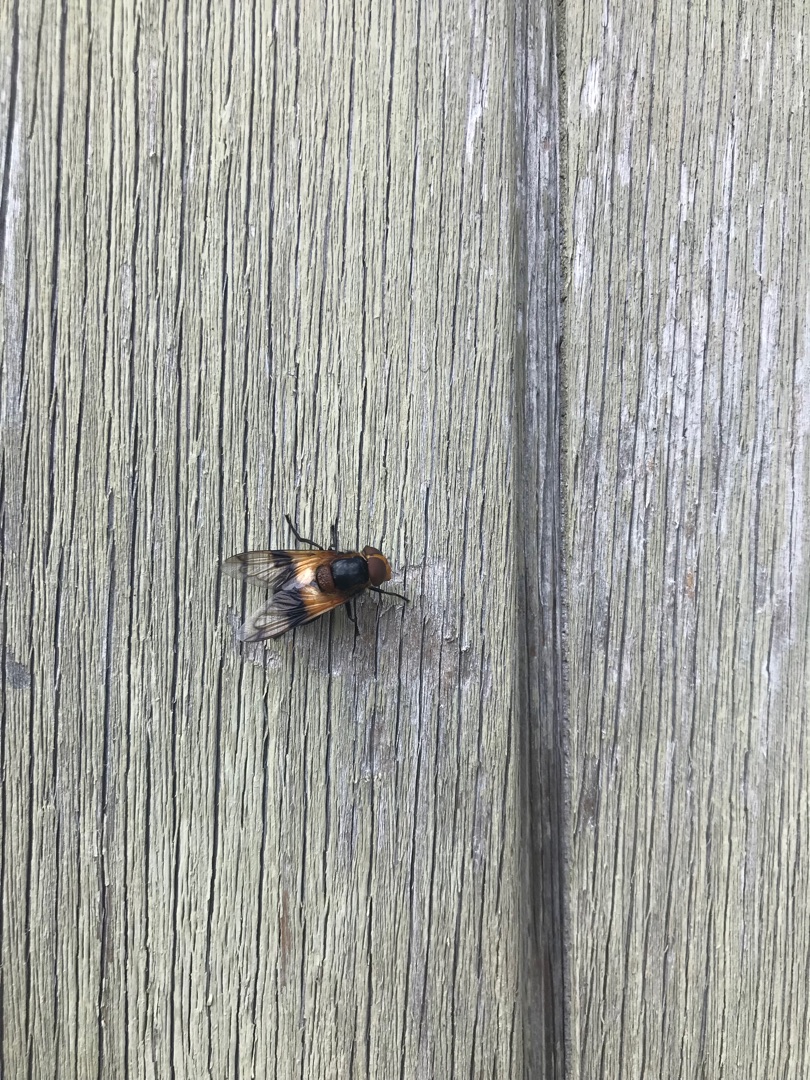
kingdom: Animalia
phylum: Arthropoda
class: Insecta
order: Diptera
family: Syrphidae
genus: Volucella
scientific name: Volucella pellucens
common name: Hvidbåndet humlesvirreflue
